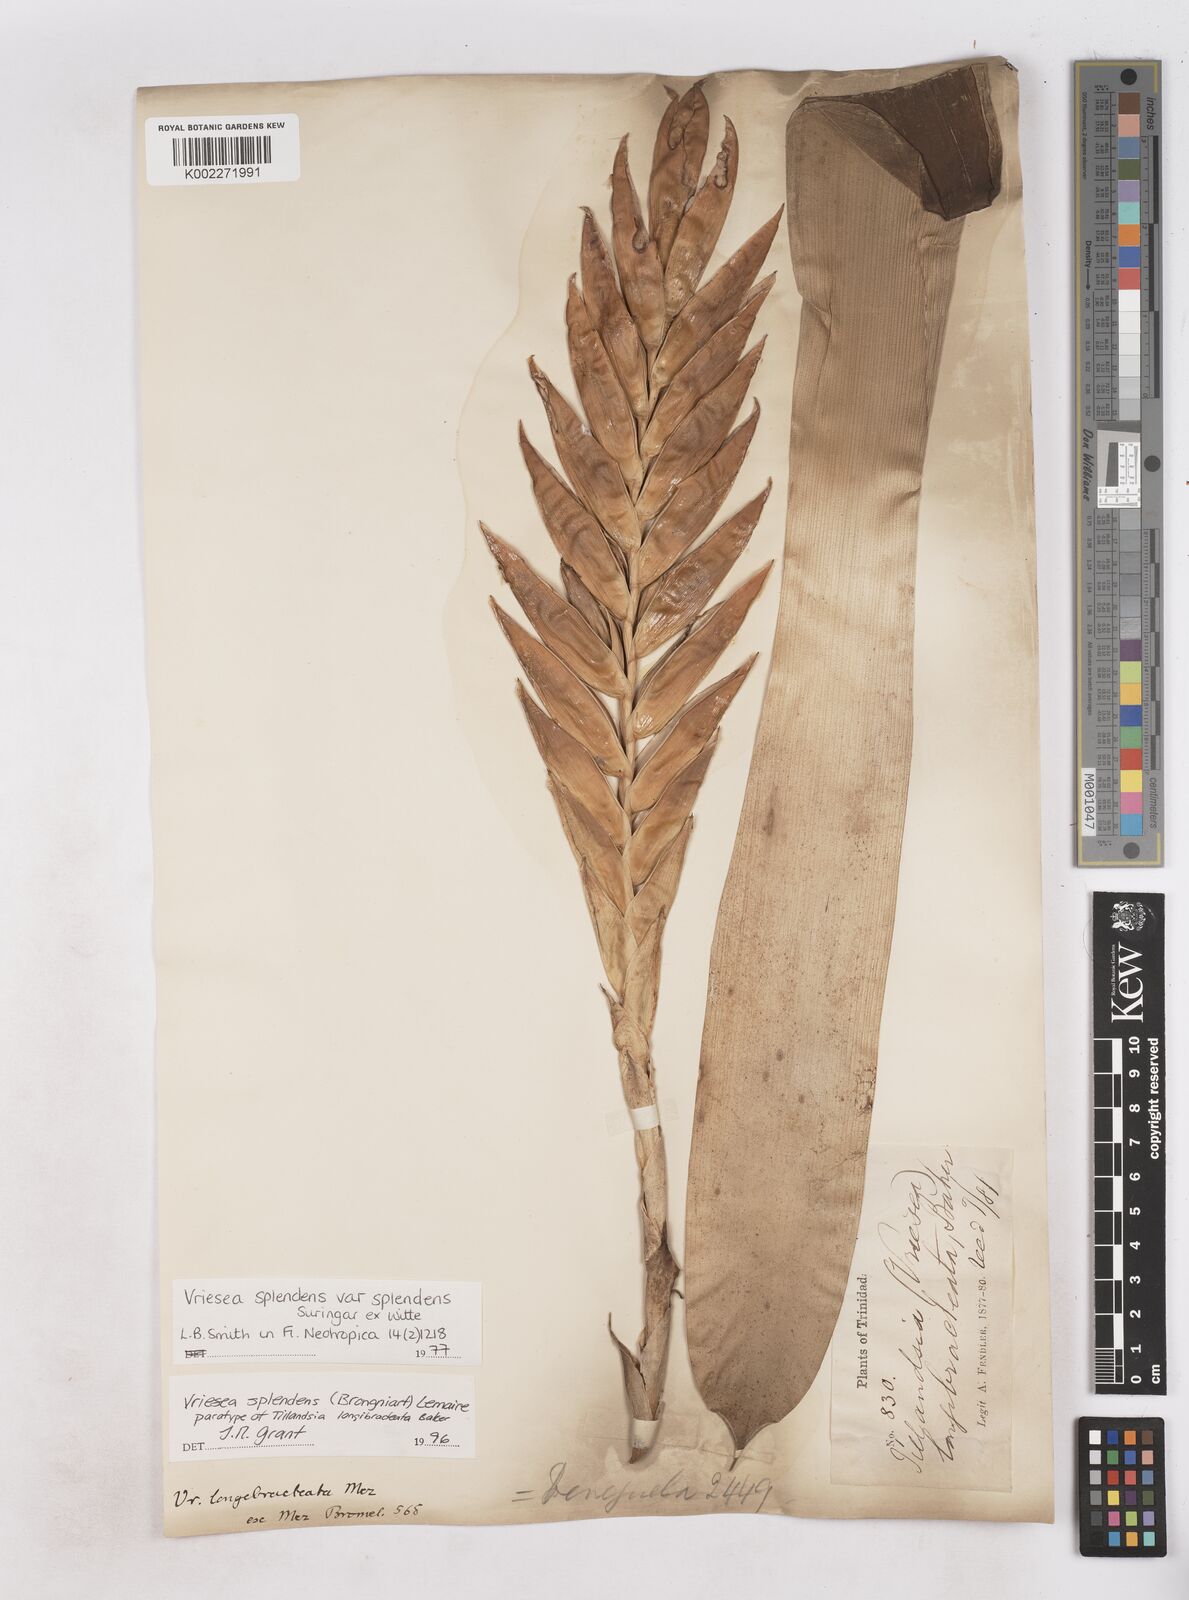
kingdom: Plantae
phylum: Tracheophyta
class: Liliopsida
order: Poales
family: Bromeliaceae
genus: Lutheria
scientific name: Lutheria splendens
